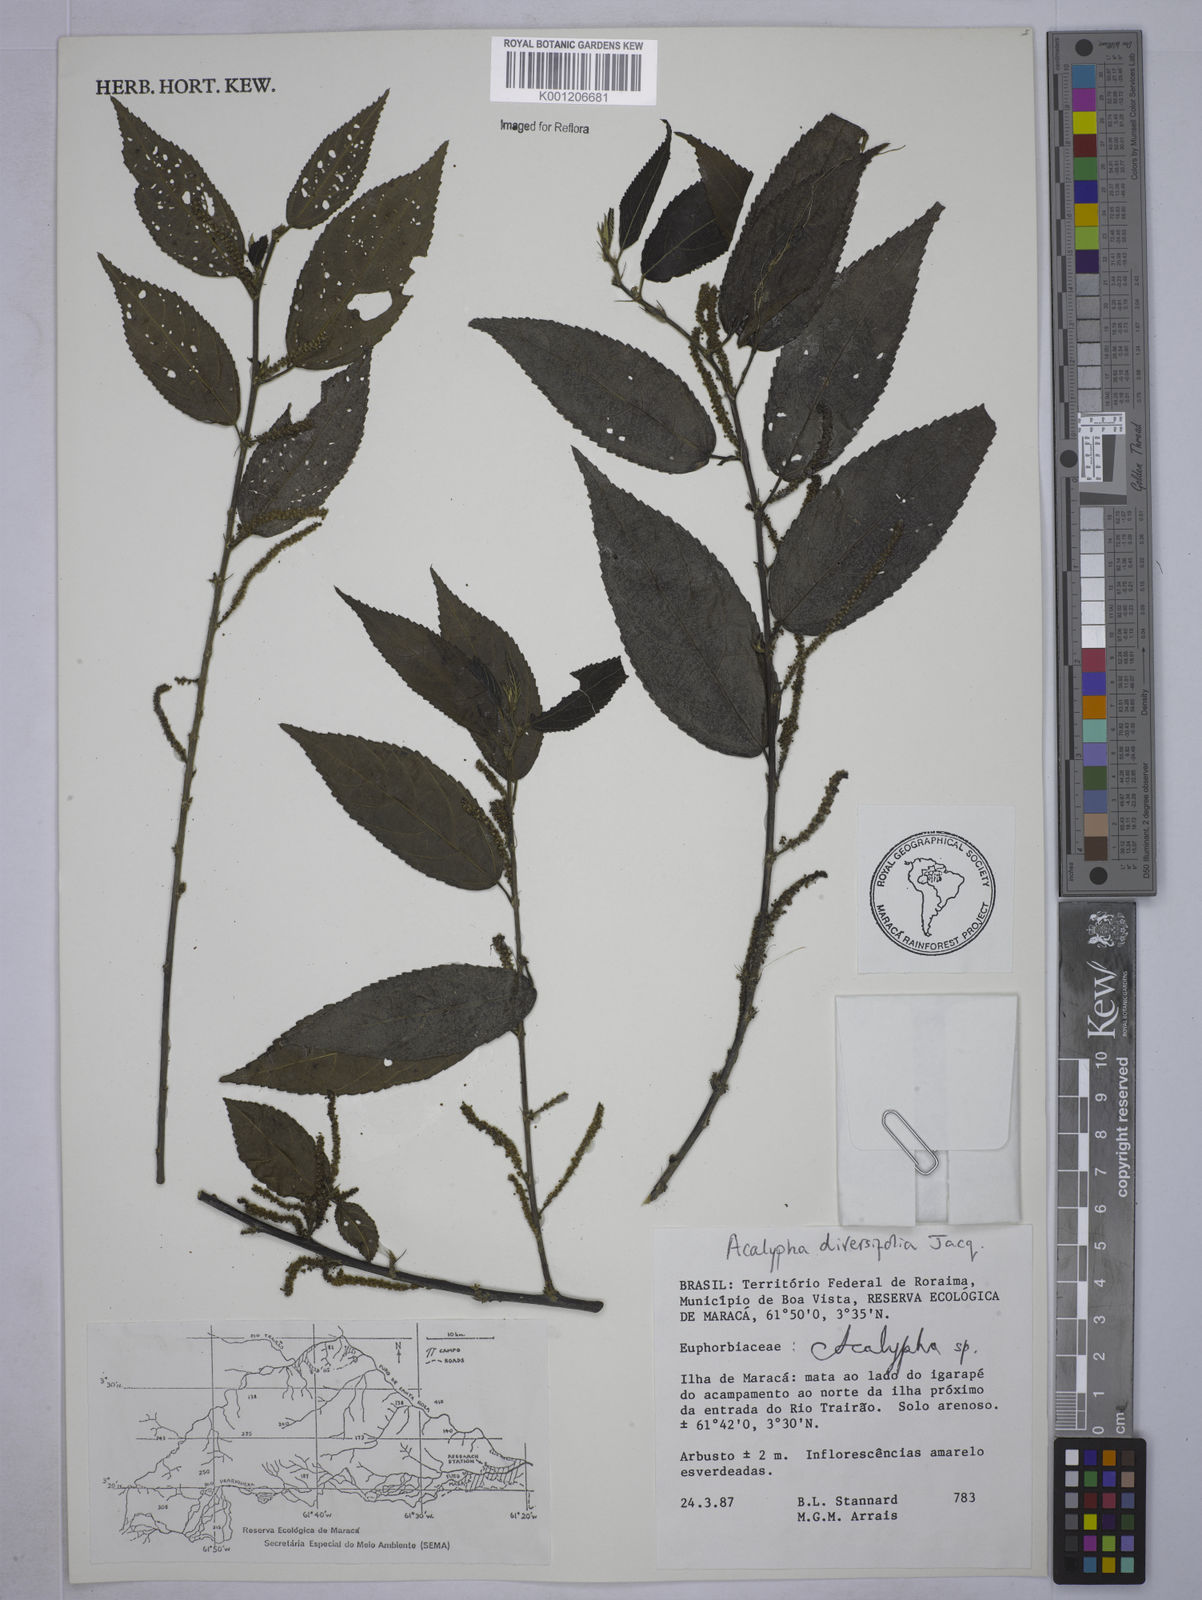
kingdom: Plantae
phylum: Tracheophyta
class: Magnoliopsida
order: Malpighiales
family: Euphorbiaceae
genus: Acalypha
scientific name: Acalypha diversifolia
